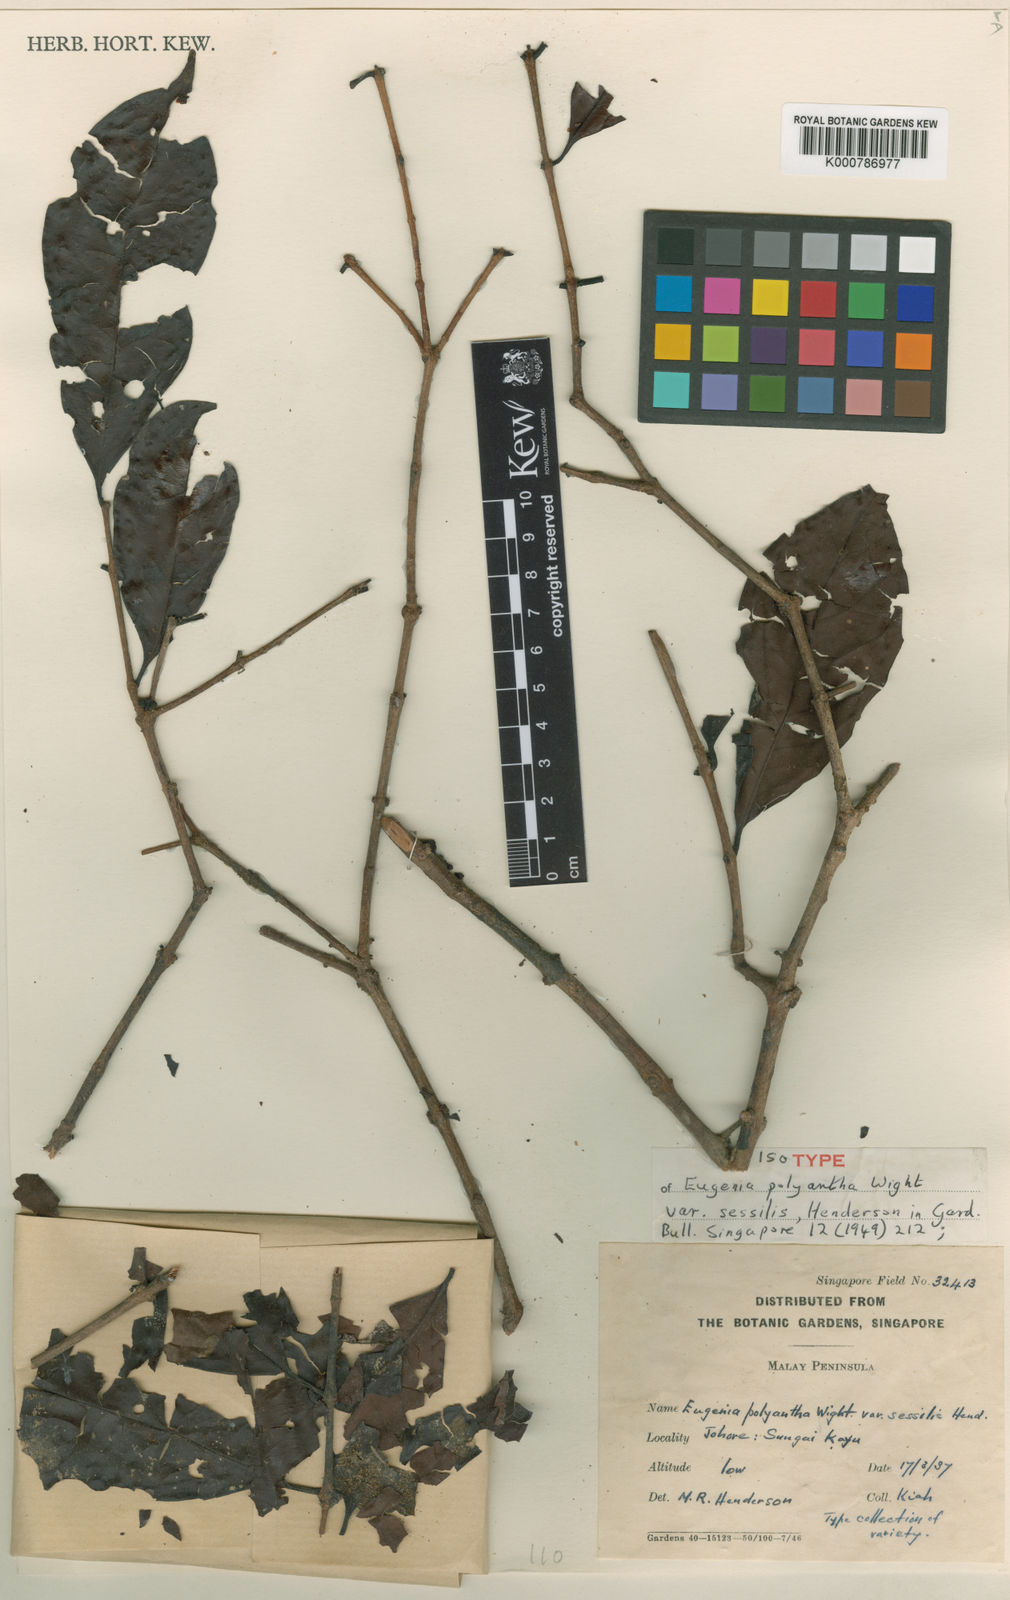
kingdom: Plantae
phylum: Tracheophyta
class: Magnoliopsida
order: Myrtales
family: Myrtaceae
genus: Syzygium
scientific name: Syzygium polyanthum
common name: Indonesian bayleaf
